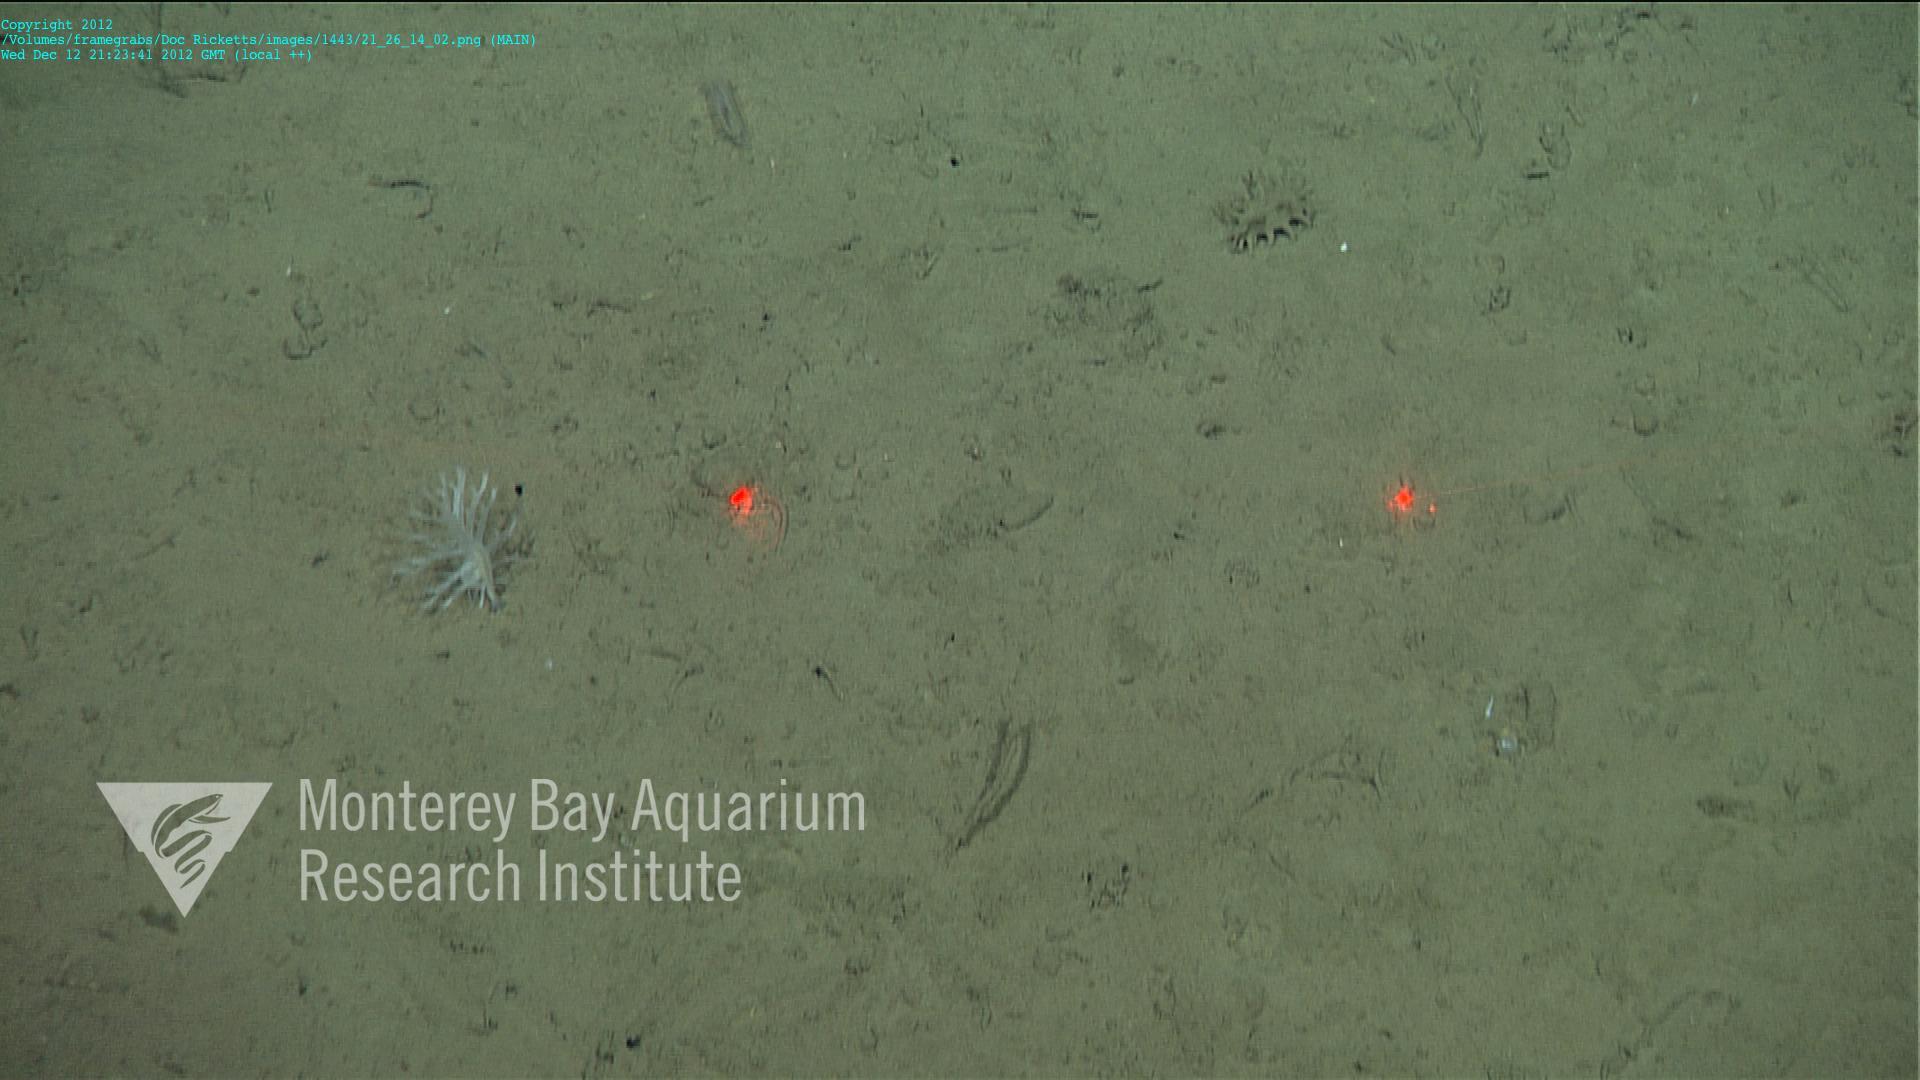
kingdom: Animalia
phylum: Cnidaria
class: Anthozoa
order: Scleralcyonacea
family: Pennatulidae
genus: Pennatula
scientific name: Pennatula
